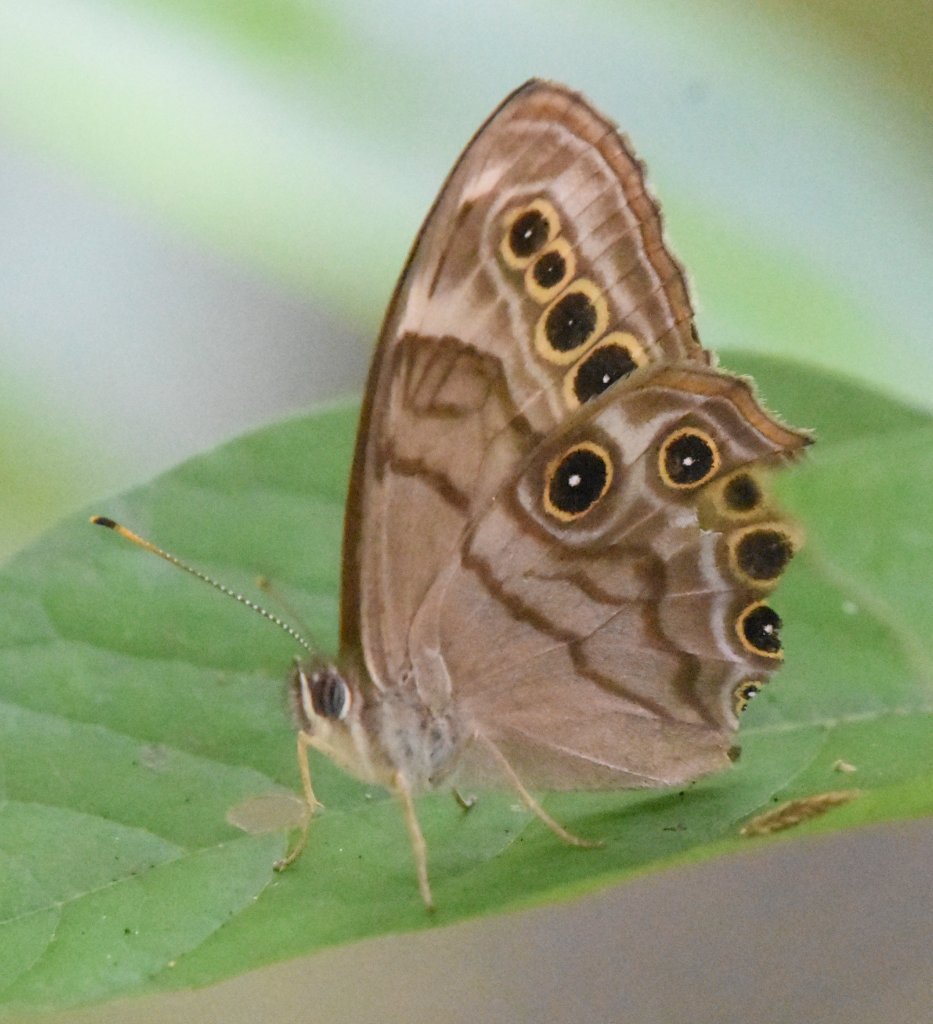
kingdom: Animalia
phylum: Arthropoda
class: Insecta
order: Lepidoptera
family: Nymphalidae
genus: Lethe
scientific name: Lethe anthedon
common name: Northern Pearly-Eye
